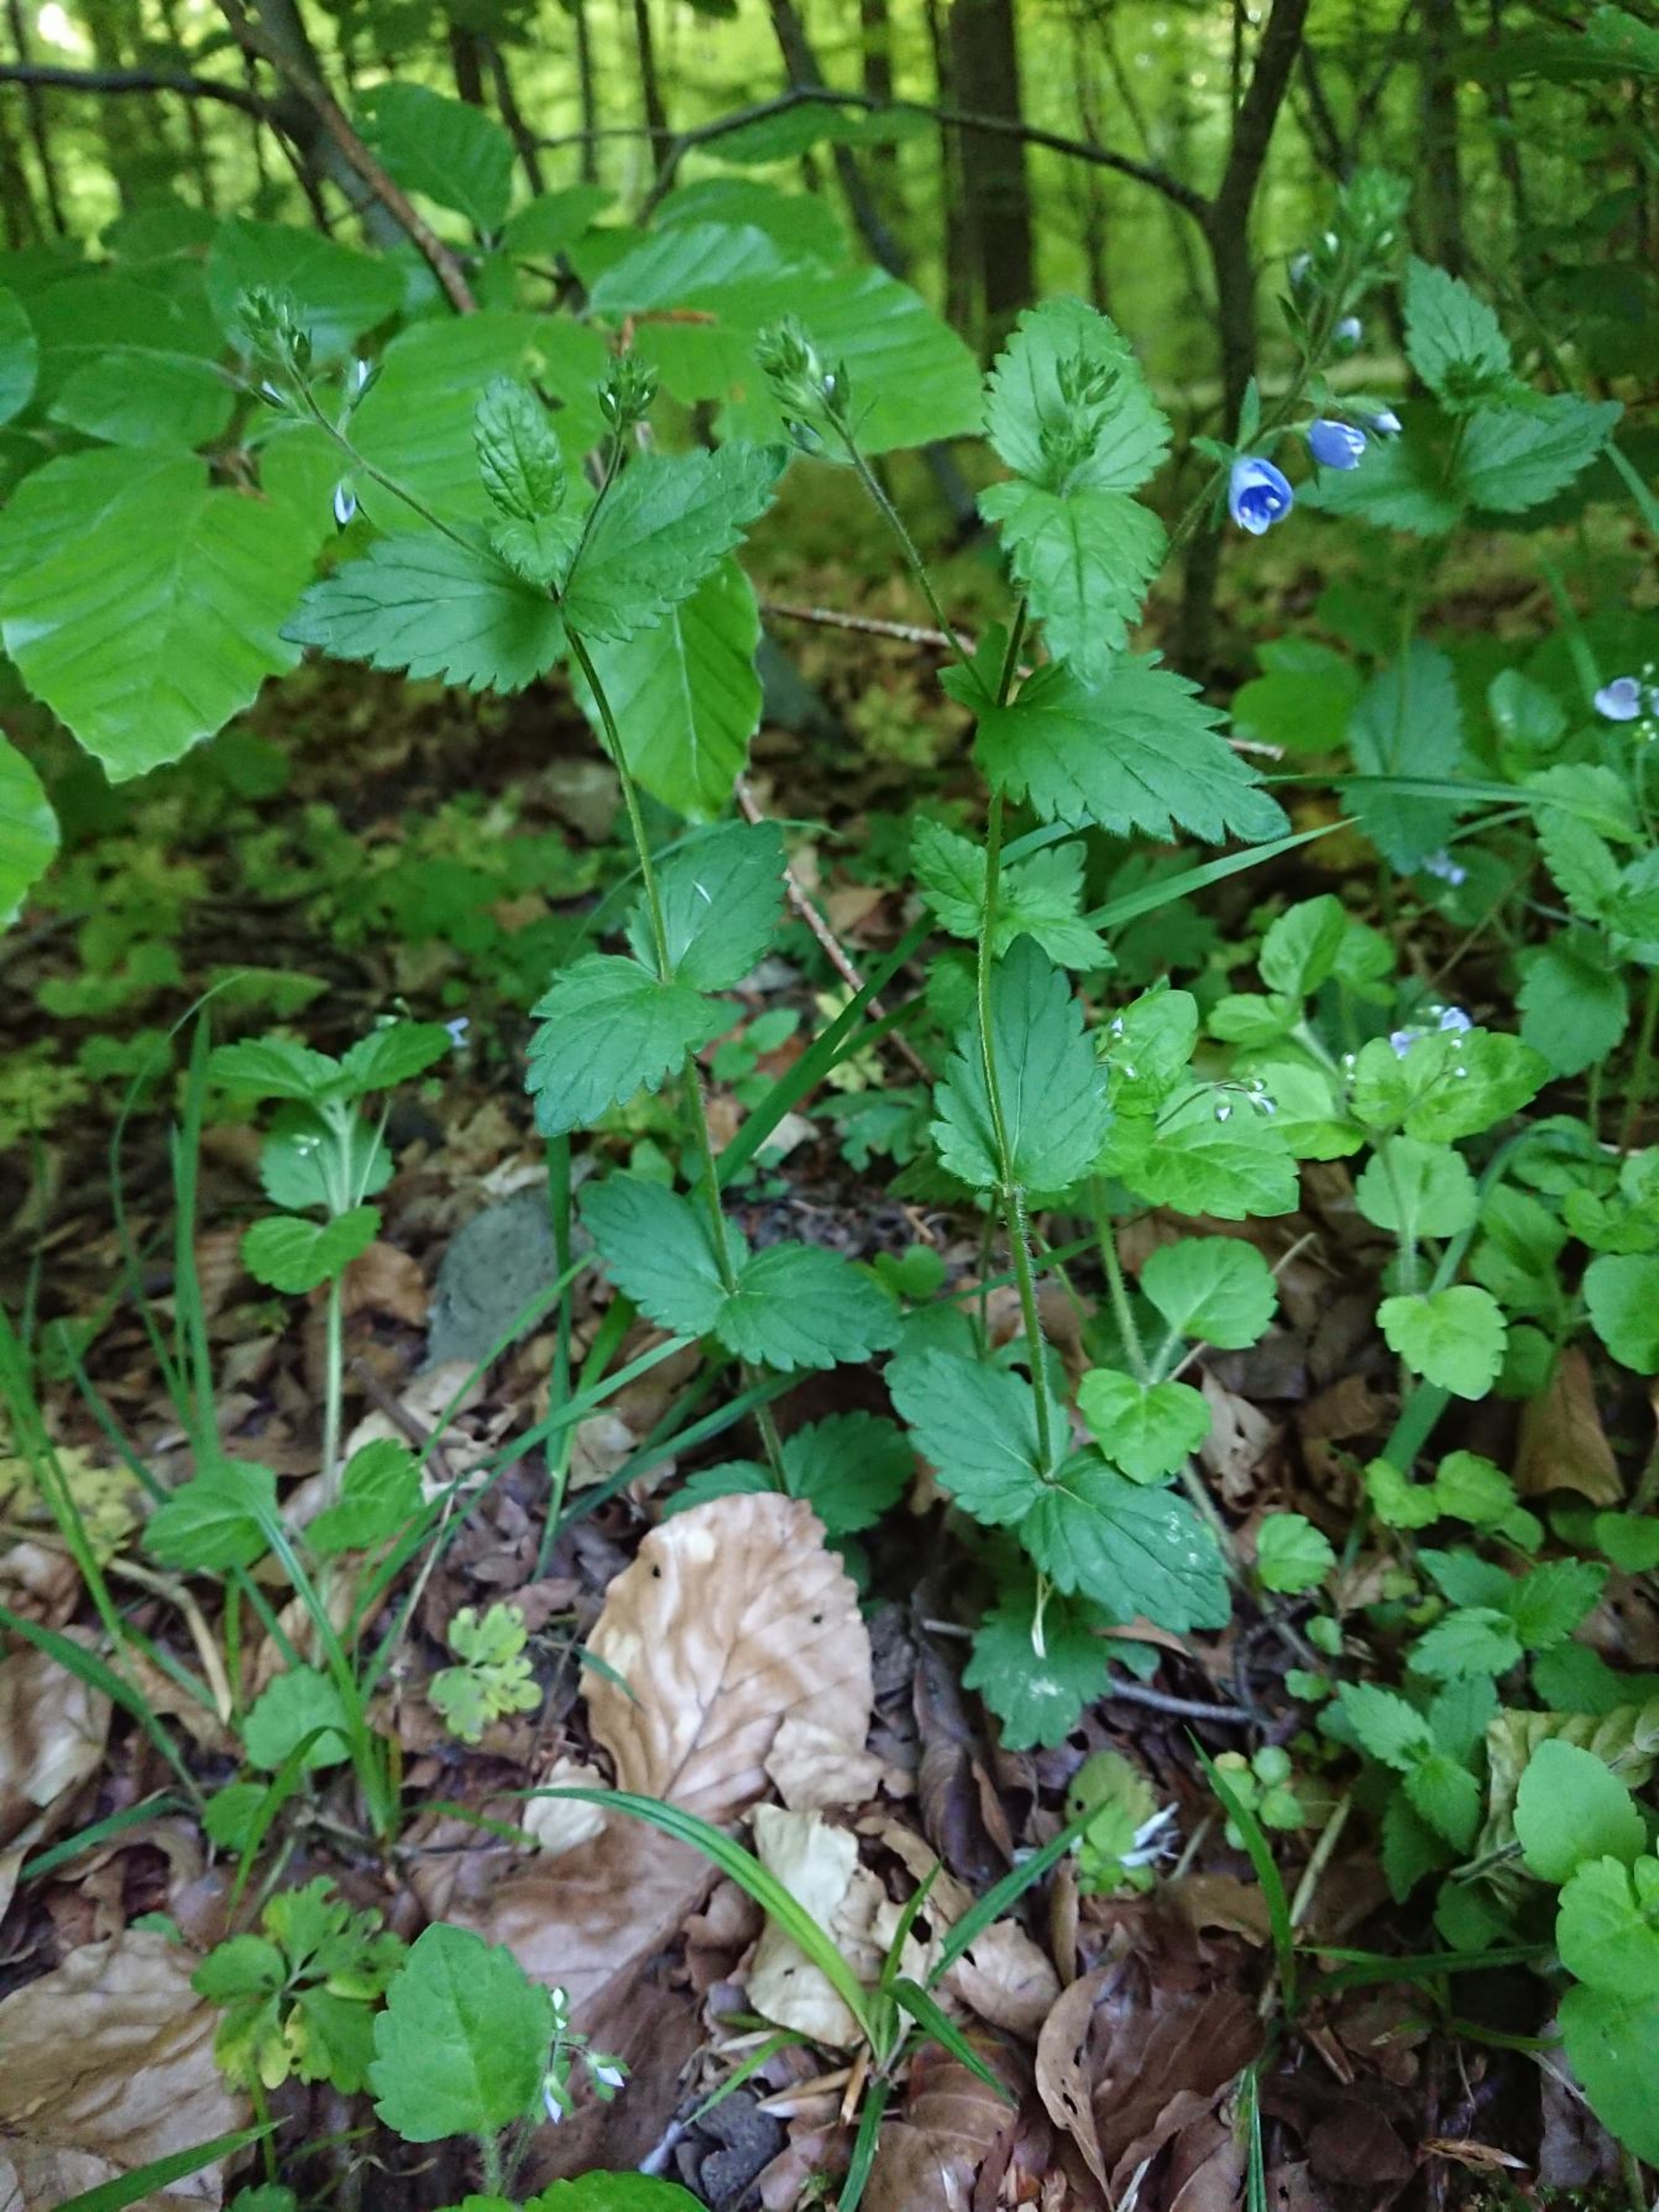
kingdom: Plantae
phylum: Tracheophyta
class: Magnoliopsida
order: Lamiales
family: Plantaginaceae
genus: Veronica
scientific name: Veronica chamaedrys
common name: Tveskægget ærenpris
